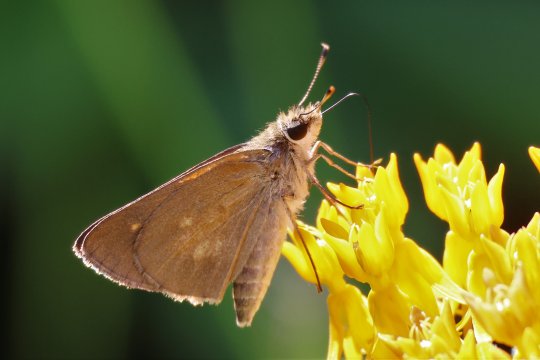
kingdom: Animalia
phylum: Arthropoda
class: Insecta
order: Lepidoptera
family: Hesperiidae
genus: Poanes
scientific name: Poanes viator
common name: Broad-winged Skipper
